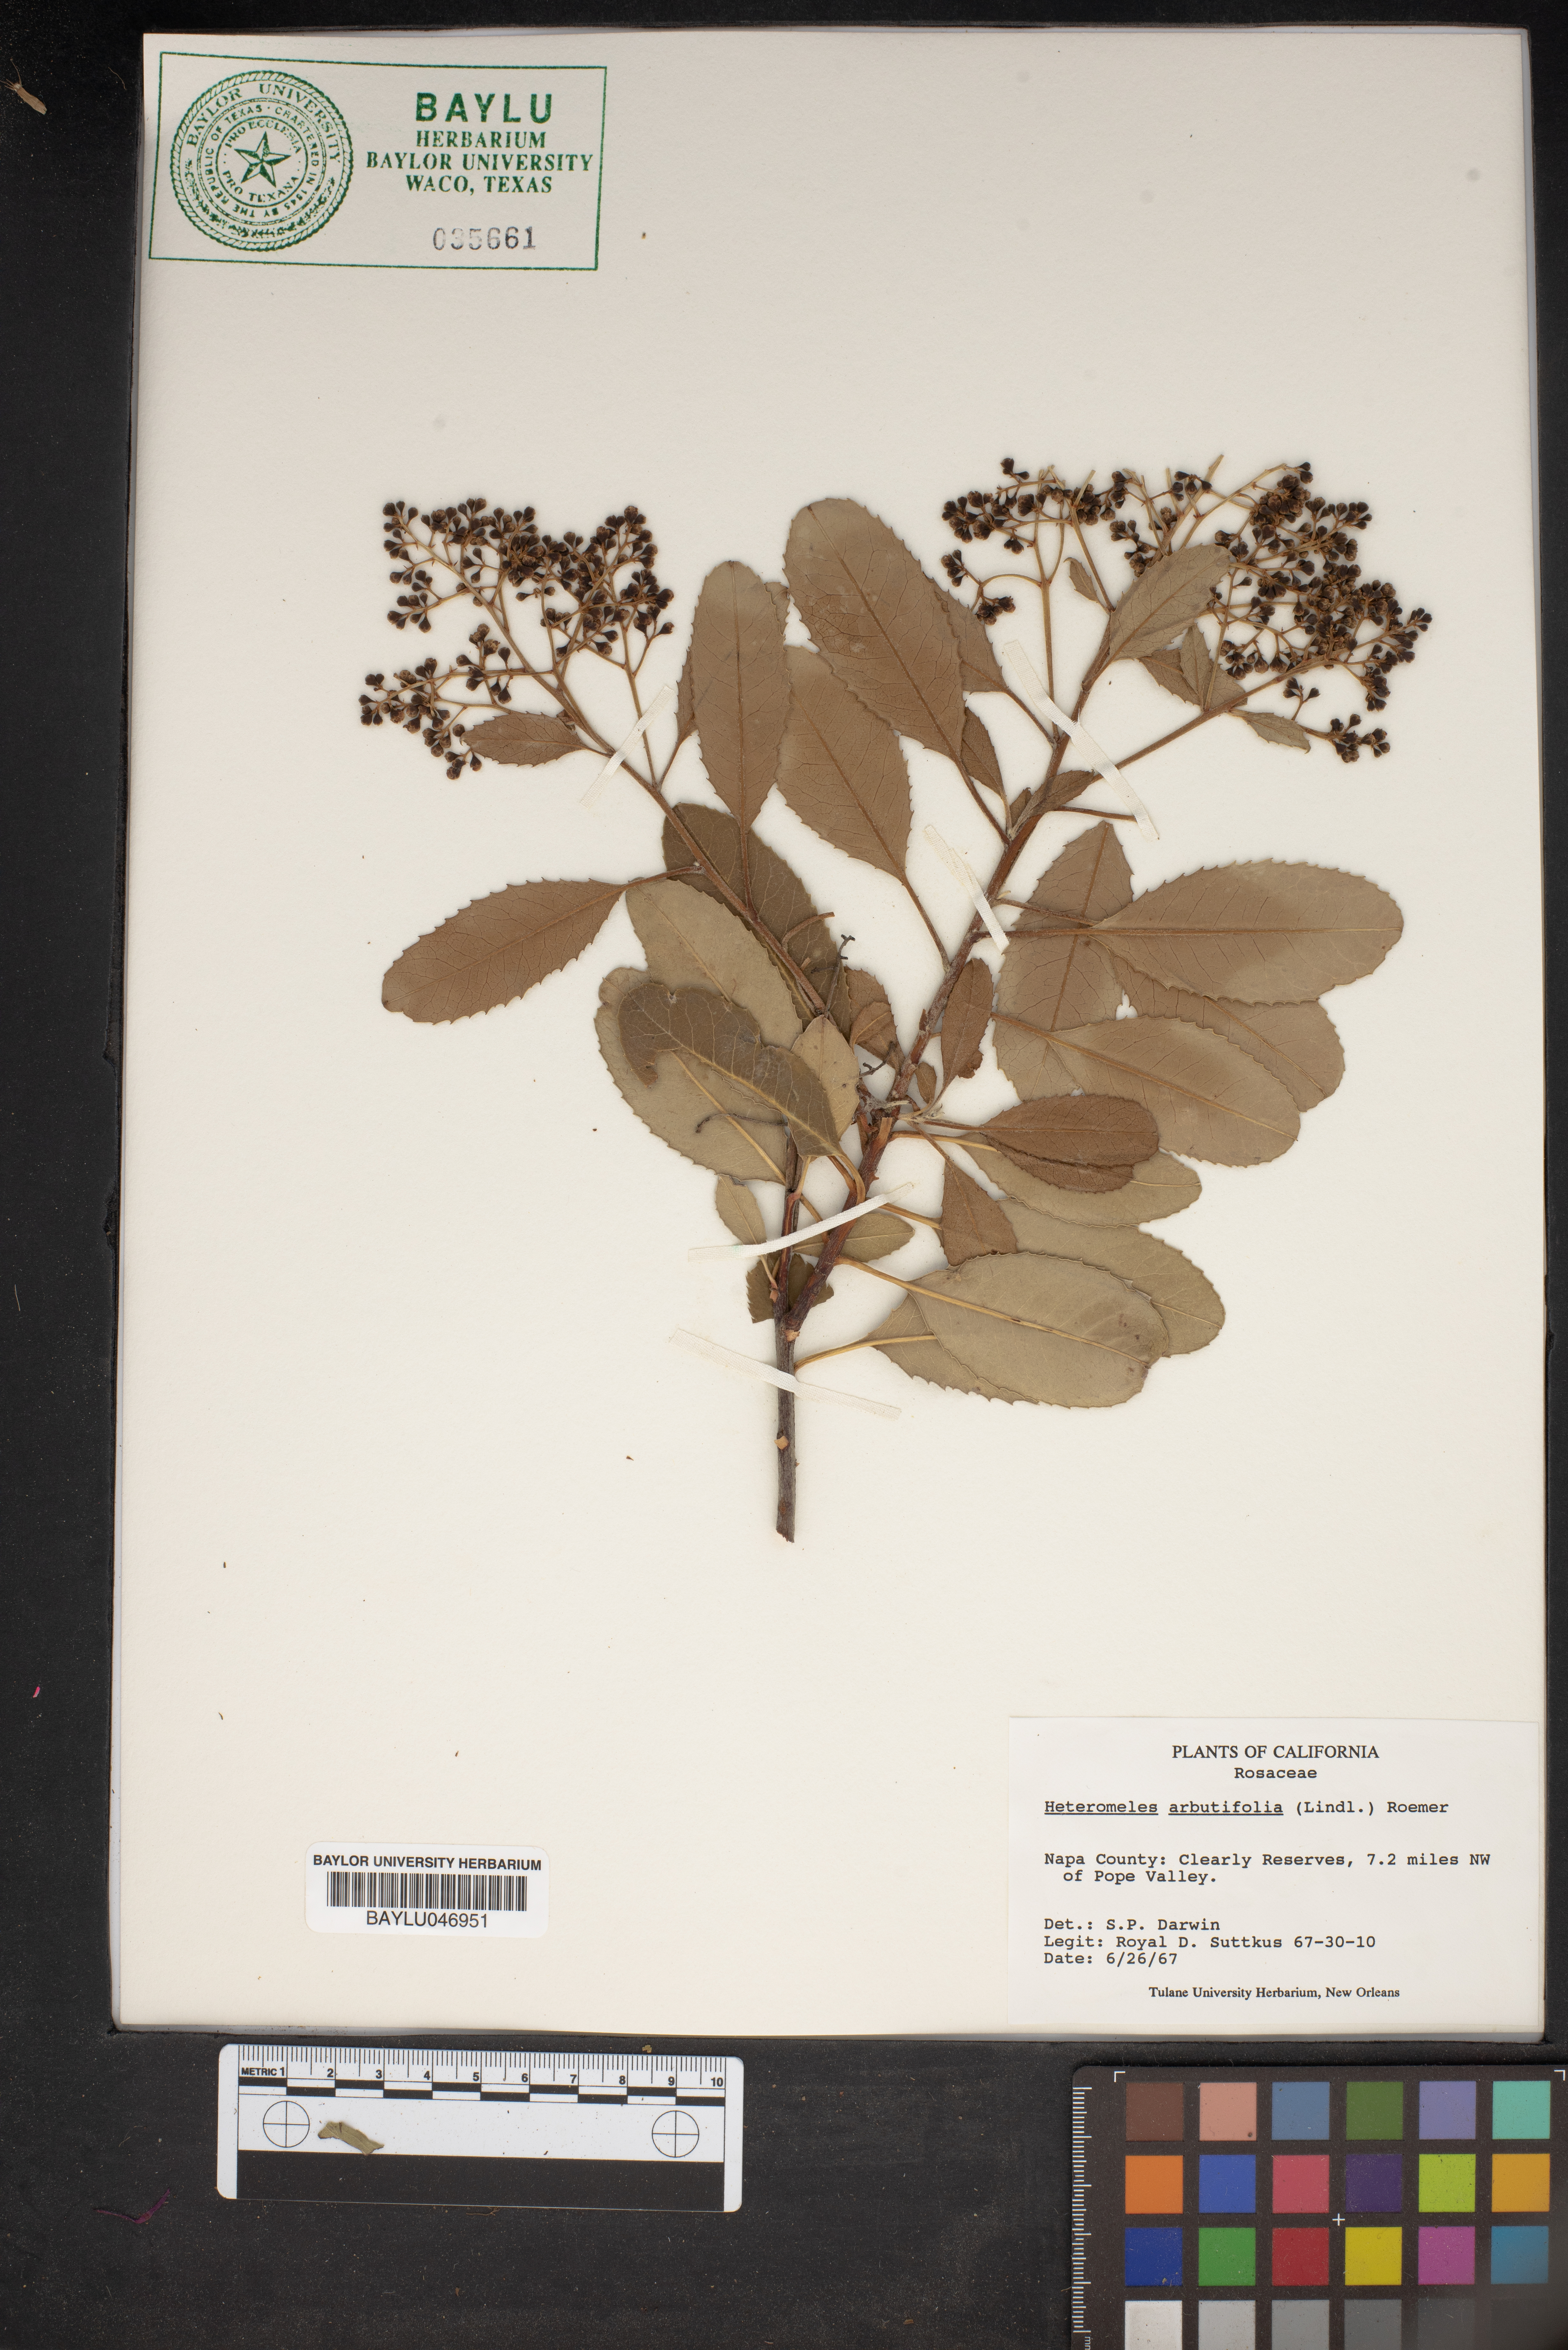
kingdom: Plantae
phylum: Tracheophyta
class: Magnoliopsida
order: Rosales
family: Rosaceae
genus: Heteromeles
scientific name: Heteromeles arbutifolia
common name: California-holly
